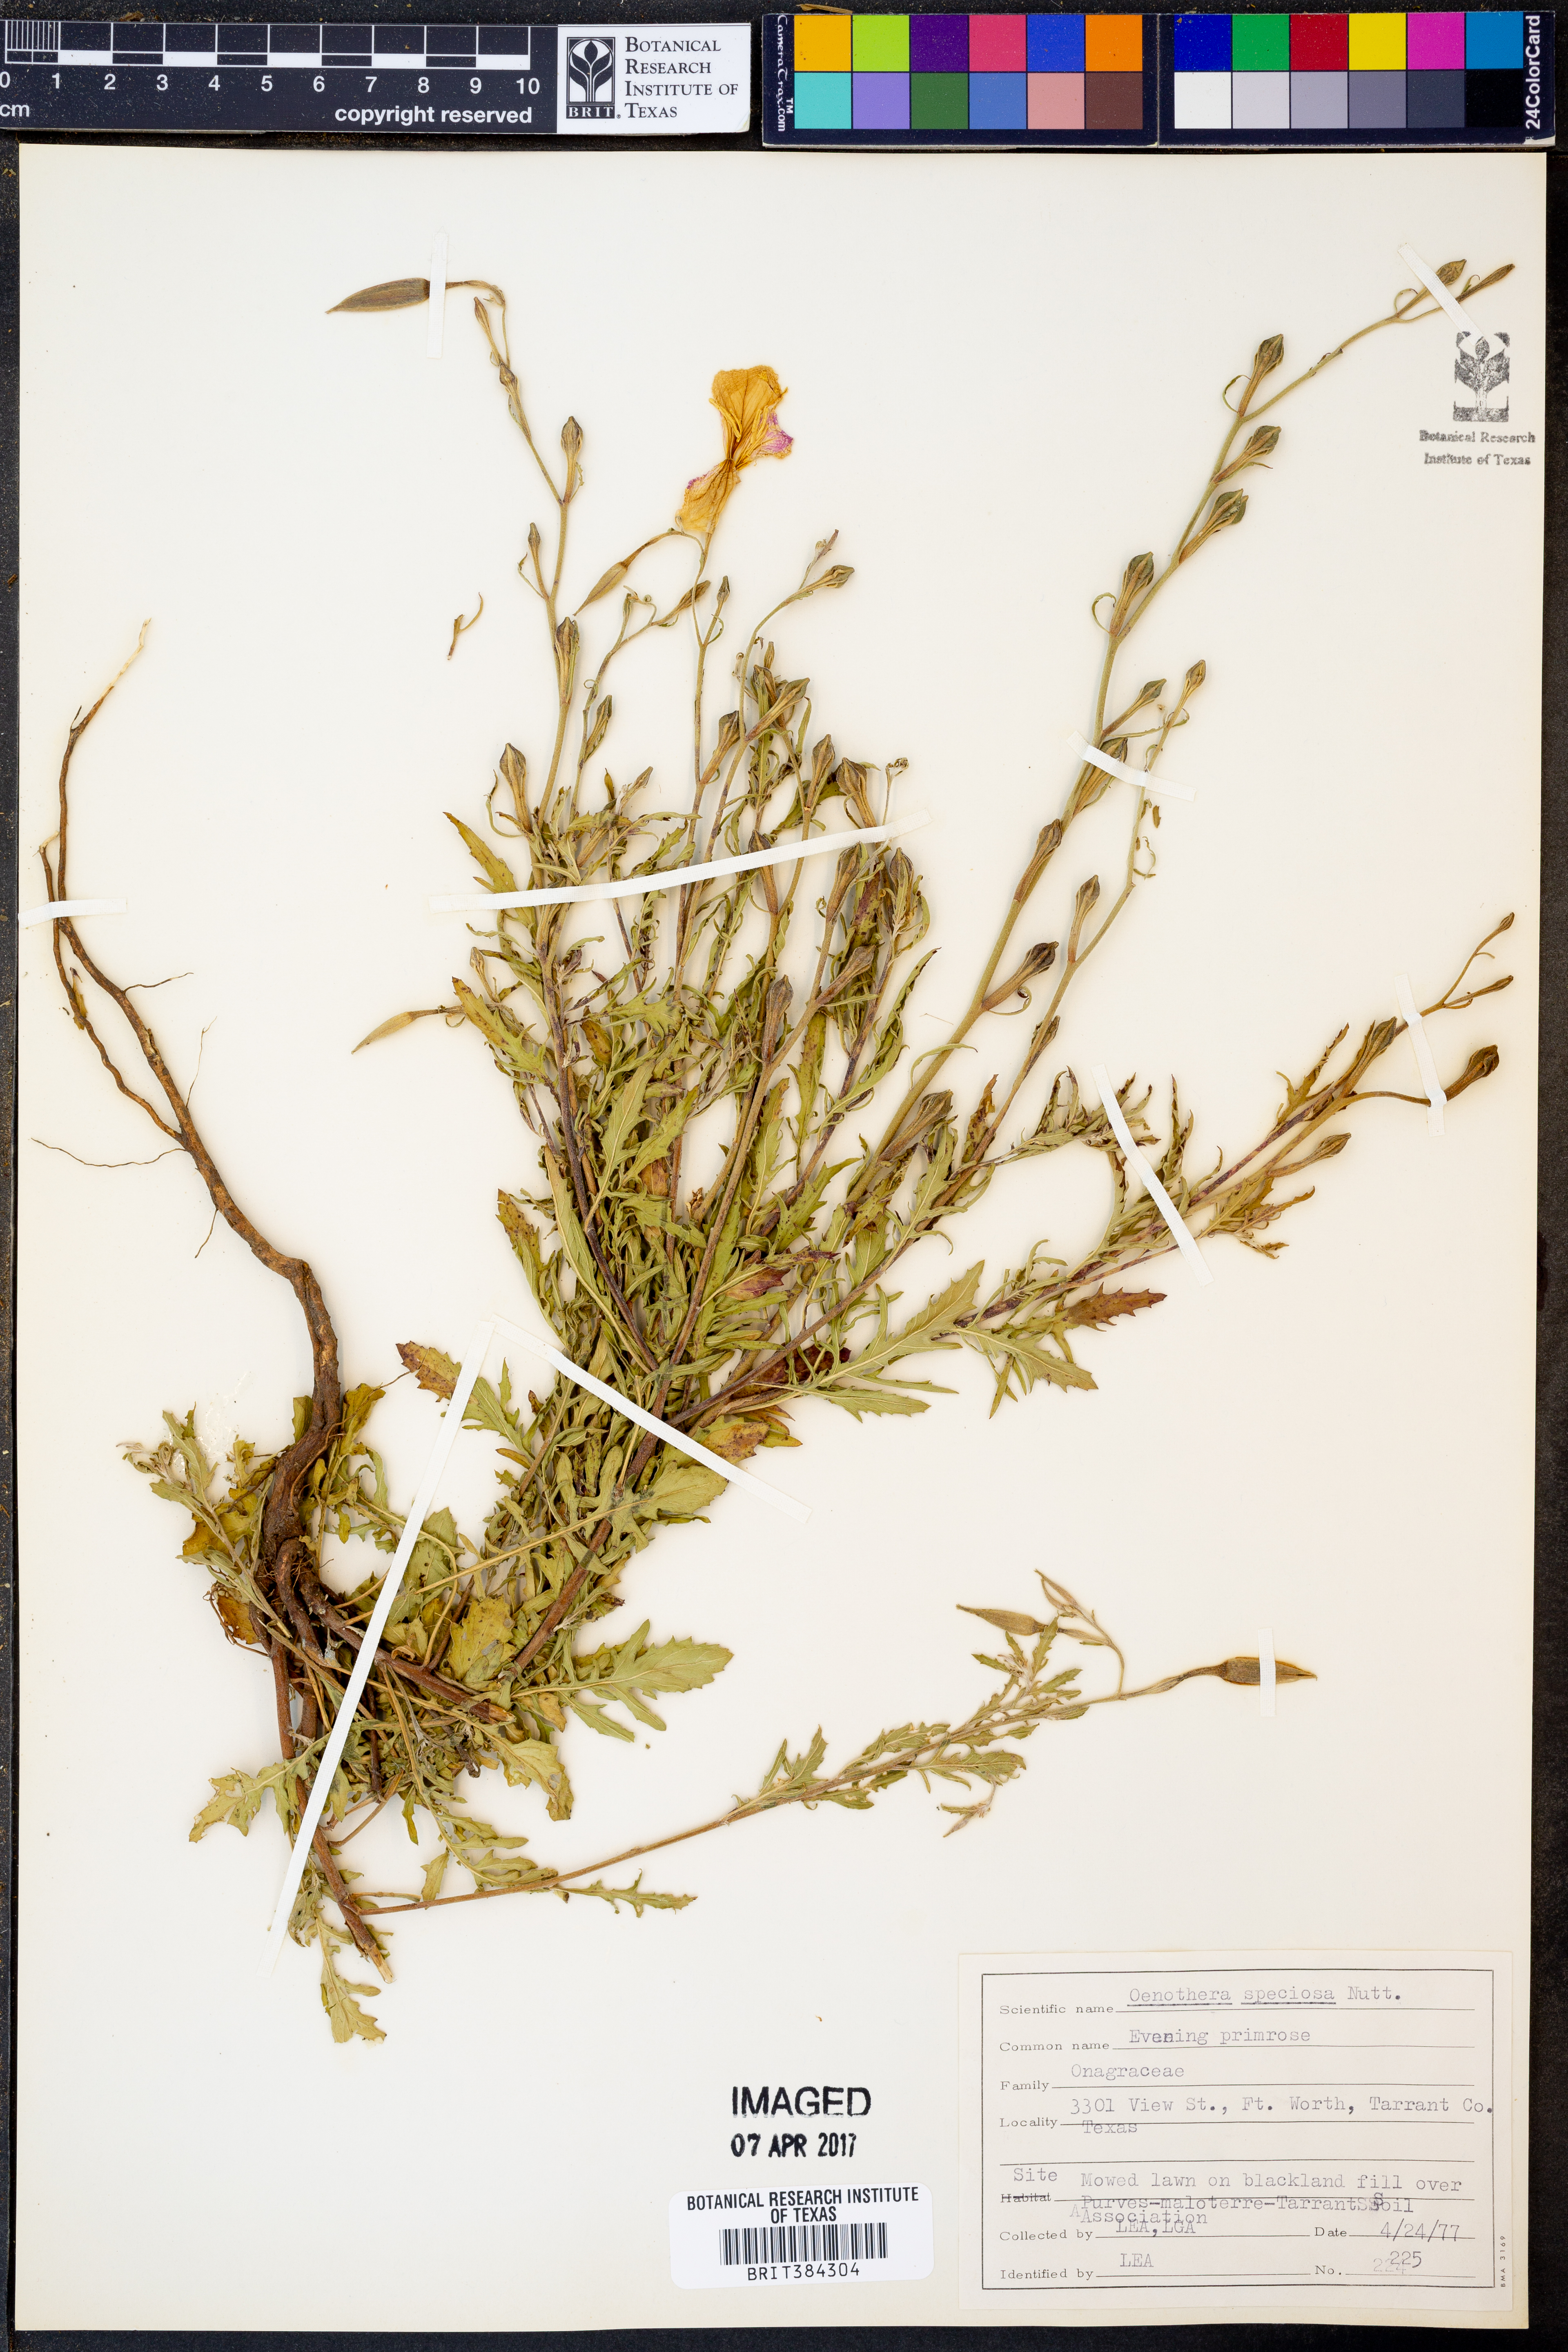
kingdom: Plantae
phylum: Tracheophyta
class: Magnoliopsida
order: Myrtales
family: Onagraceae
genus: Oenothera
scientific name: Oenothera speciosa
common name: White evening-primrose
